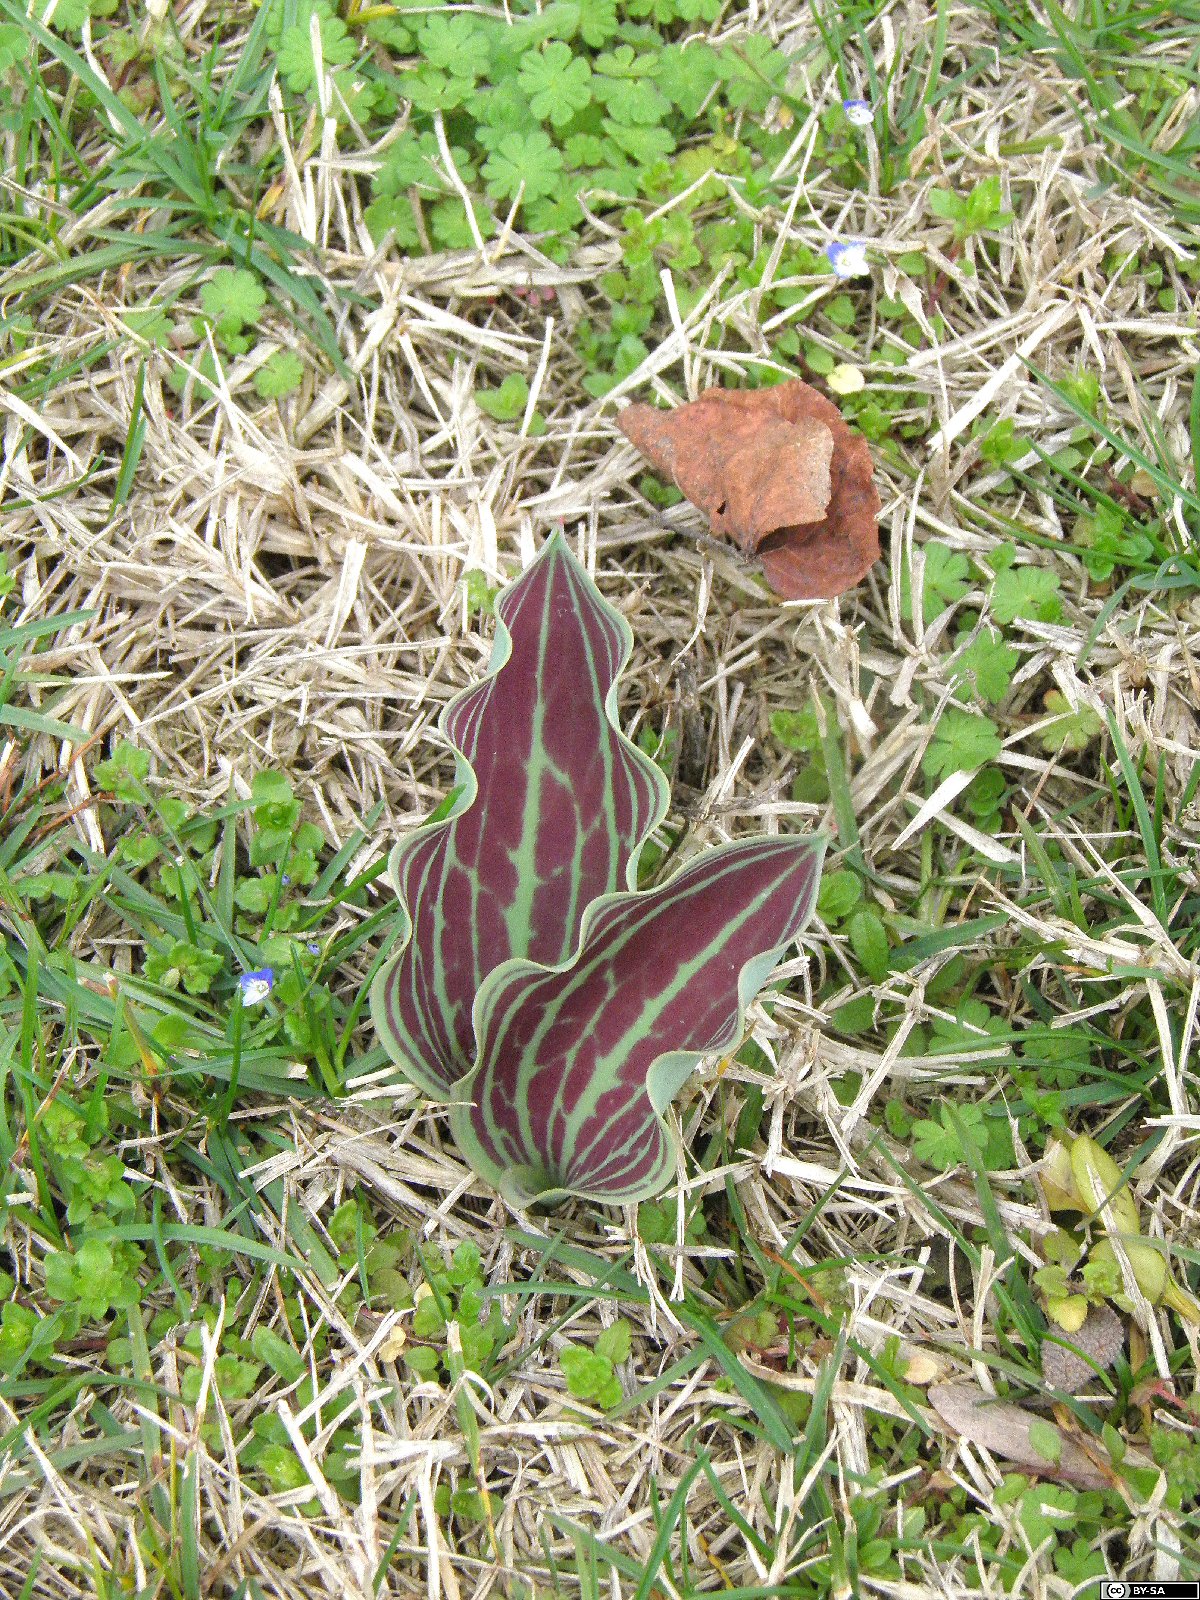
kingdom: Plantae
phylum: Tracheophyta
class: Liliopsida
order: Liliales
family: Liliaceae
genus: Tulipa
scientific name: Tulipa greigii
